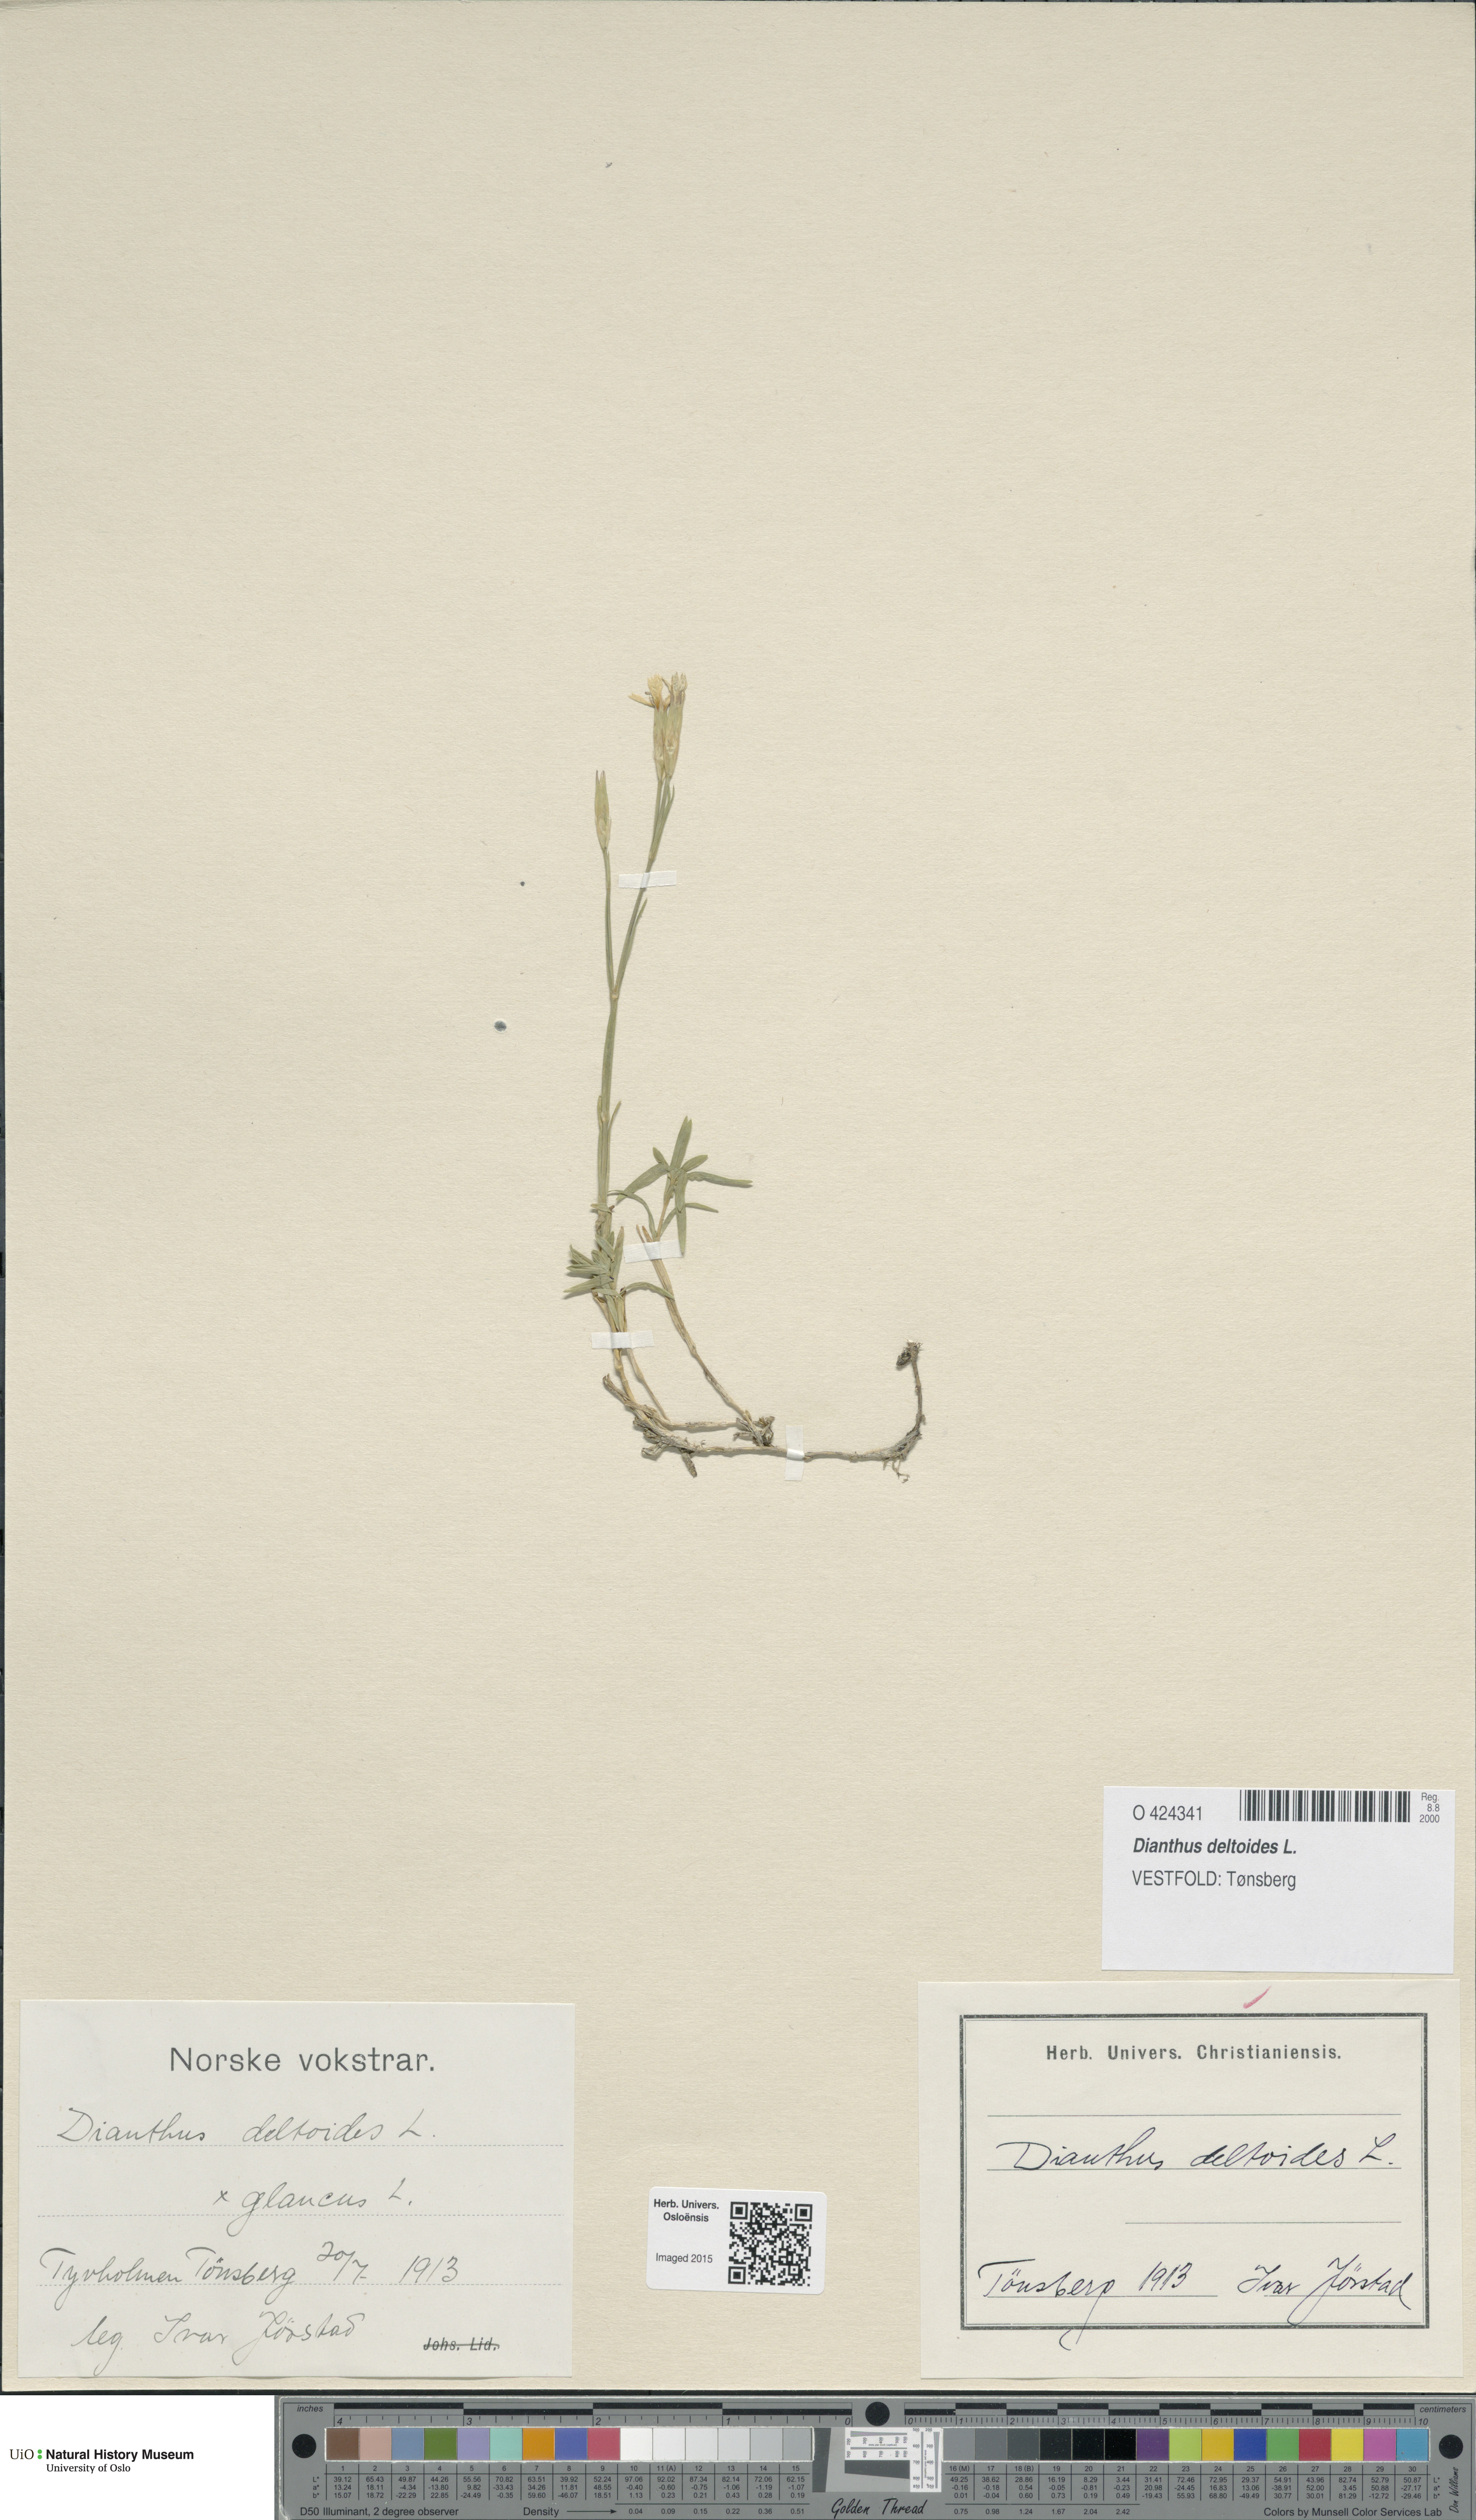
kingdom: Plantae
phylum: Tracheophyta
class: Magnoliopsida
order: Caryophyllales
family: Caryophyllaceae
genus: Dianthus
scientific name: Dianthus deltoides
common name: Maiden pink
